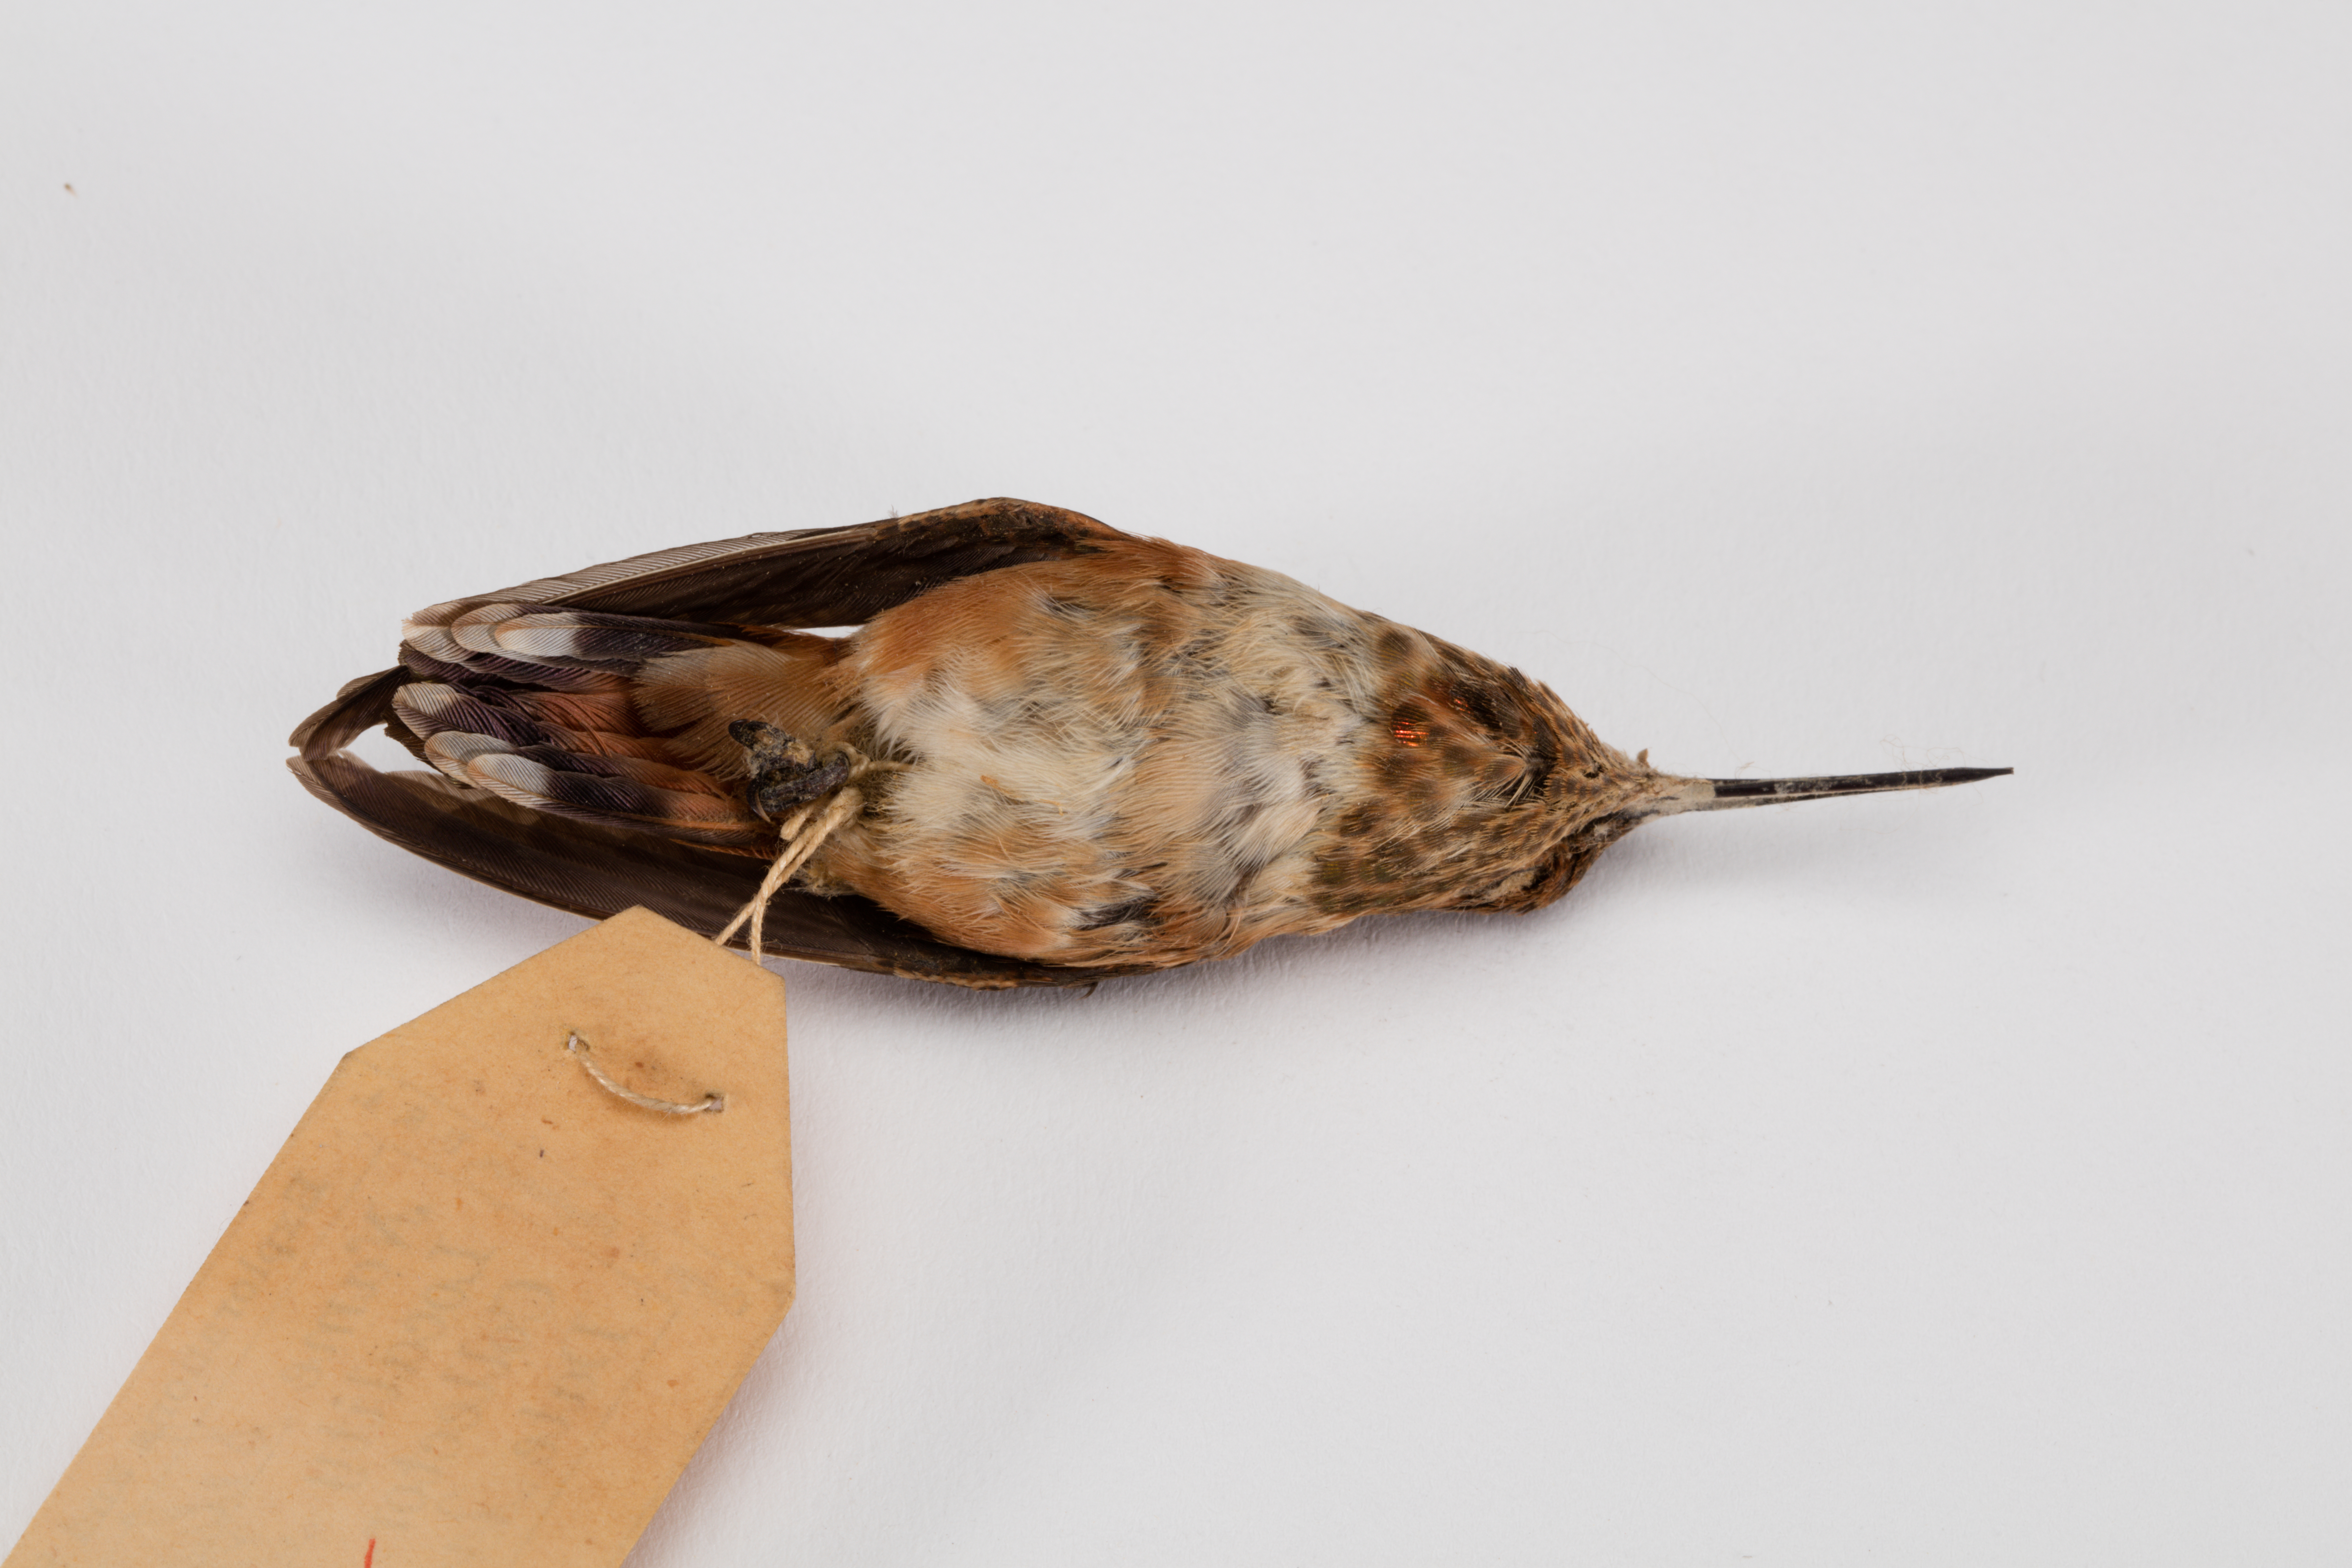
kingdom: Animalia
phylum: Chordata
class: Aves
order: Apodiformes
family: Trochilidae
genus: Selasphorus
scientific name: Selasphorus rufus
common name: Rufous hummingbird
